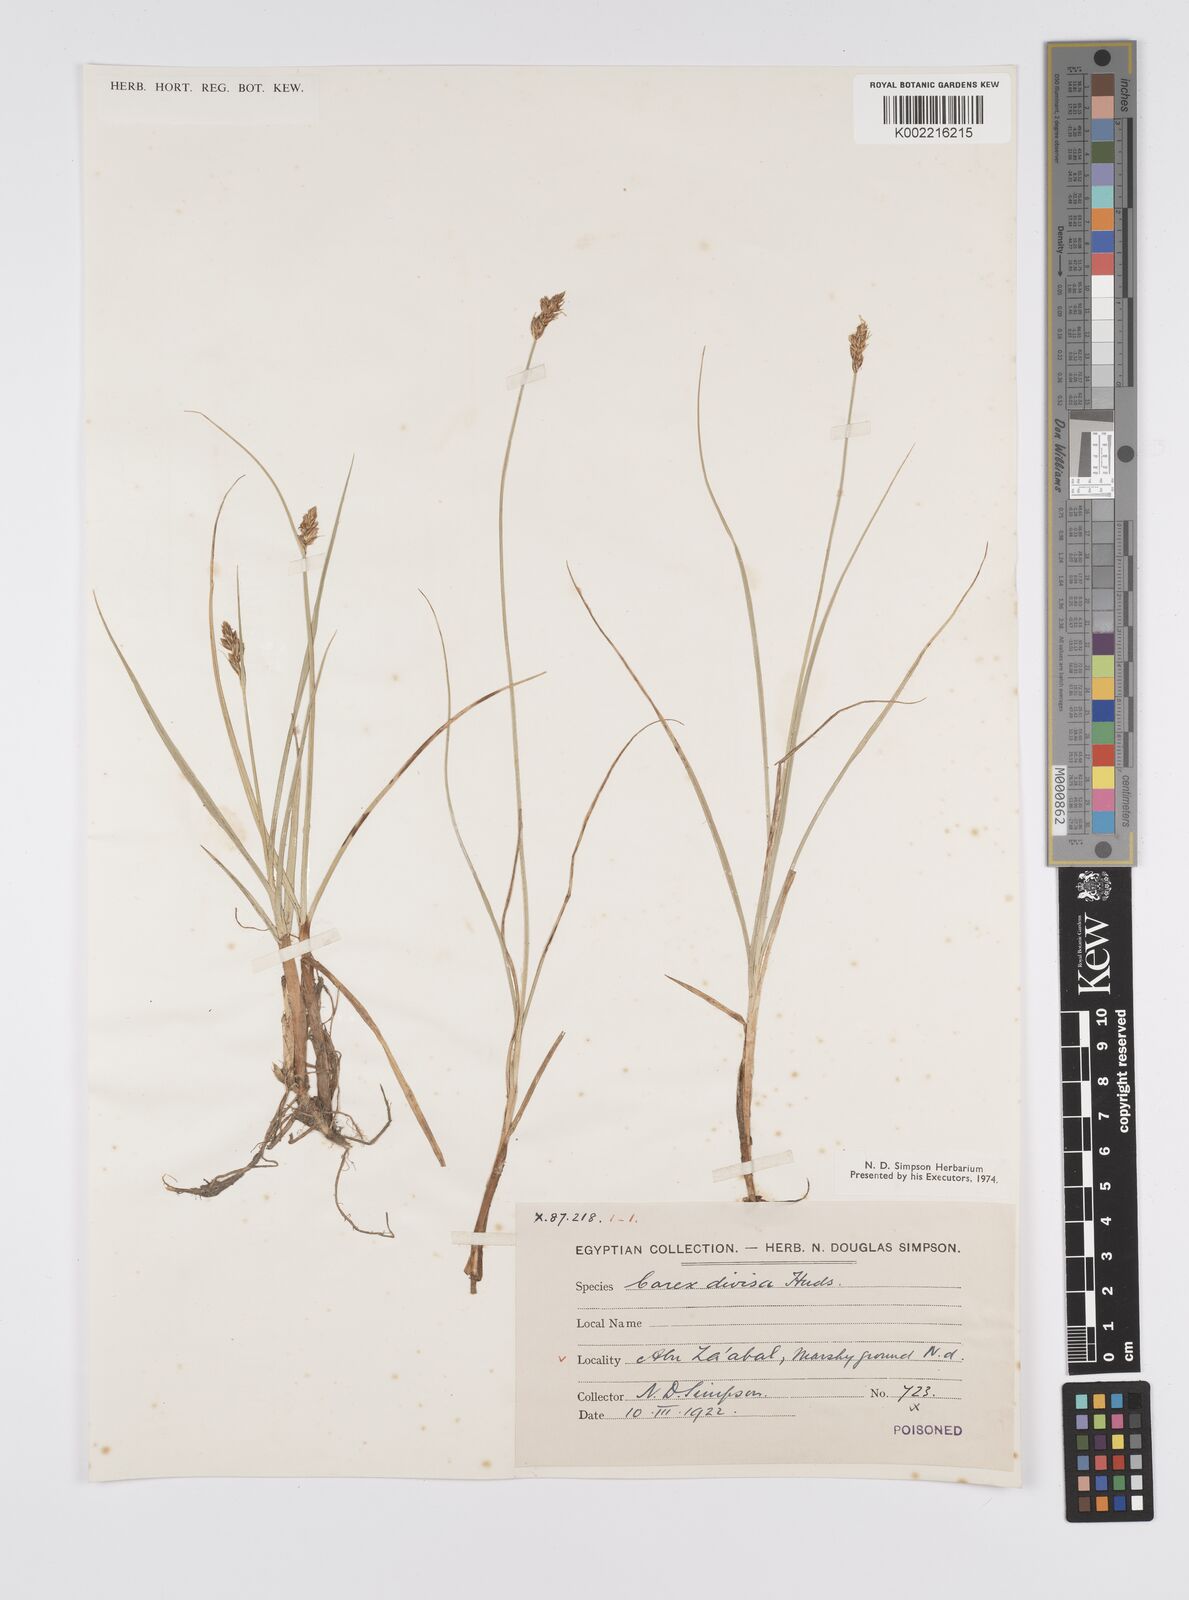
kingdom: Plantae
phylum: Tracheophyta
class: Liliopsida
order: Poales
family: Cyperaceae
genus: Carex
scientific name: Carex divisa
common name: Divided sedge
